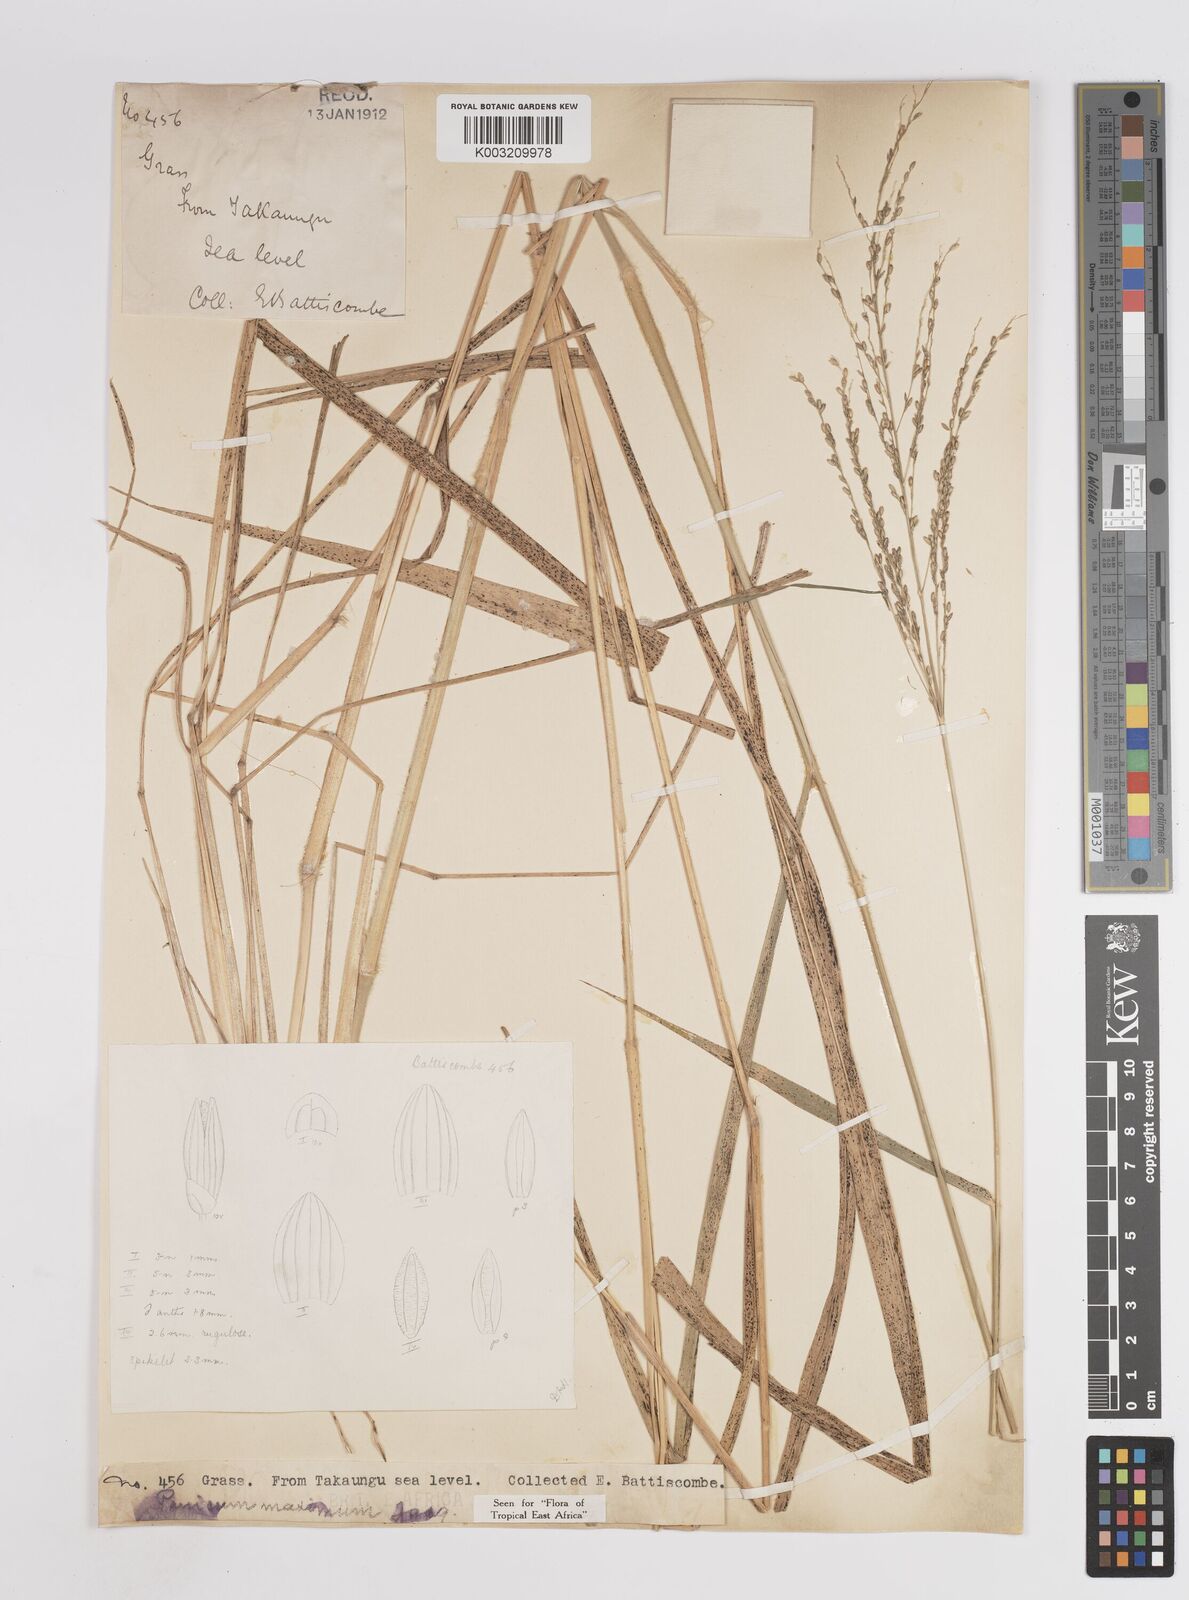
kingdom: Plantae
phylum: Tracheophyta
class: Liliopsida
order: Poales
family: Poaceae
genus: Megathyrsus
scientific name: Megathyrsus maximus
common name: Guineagrass
